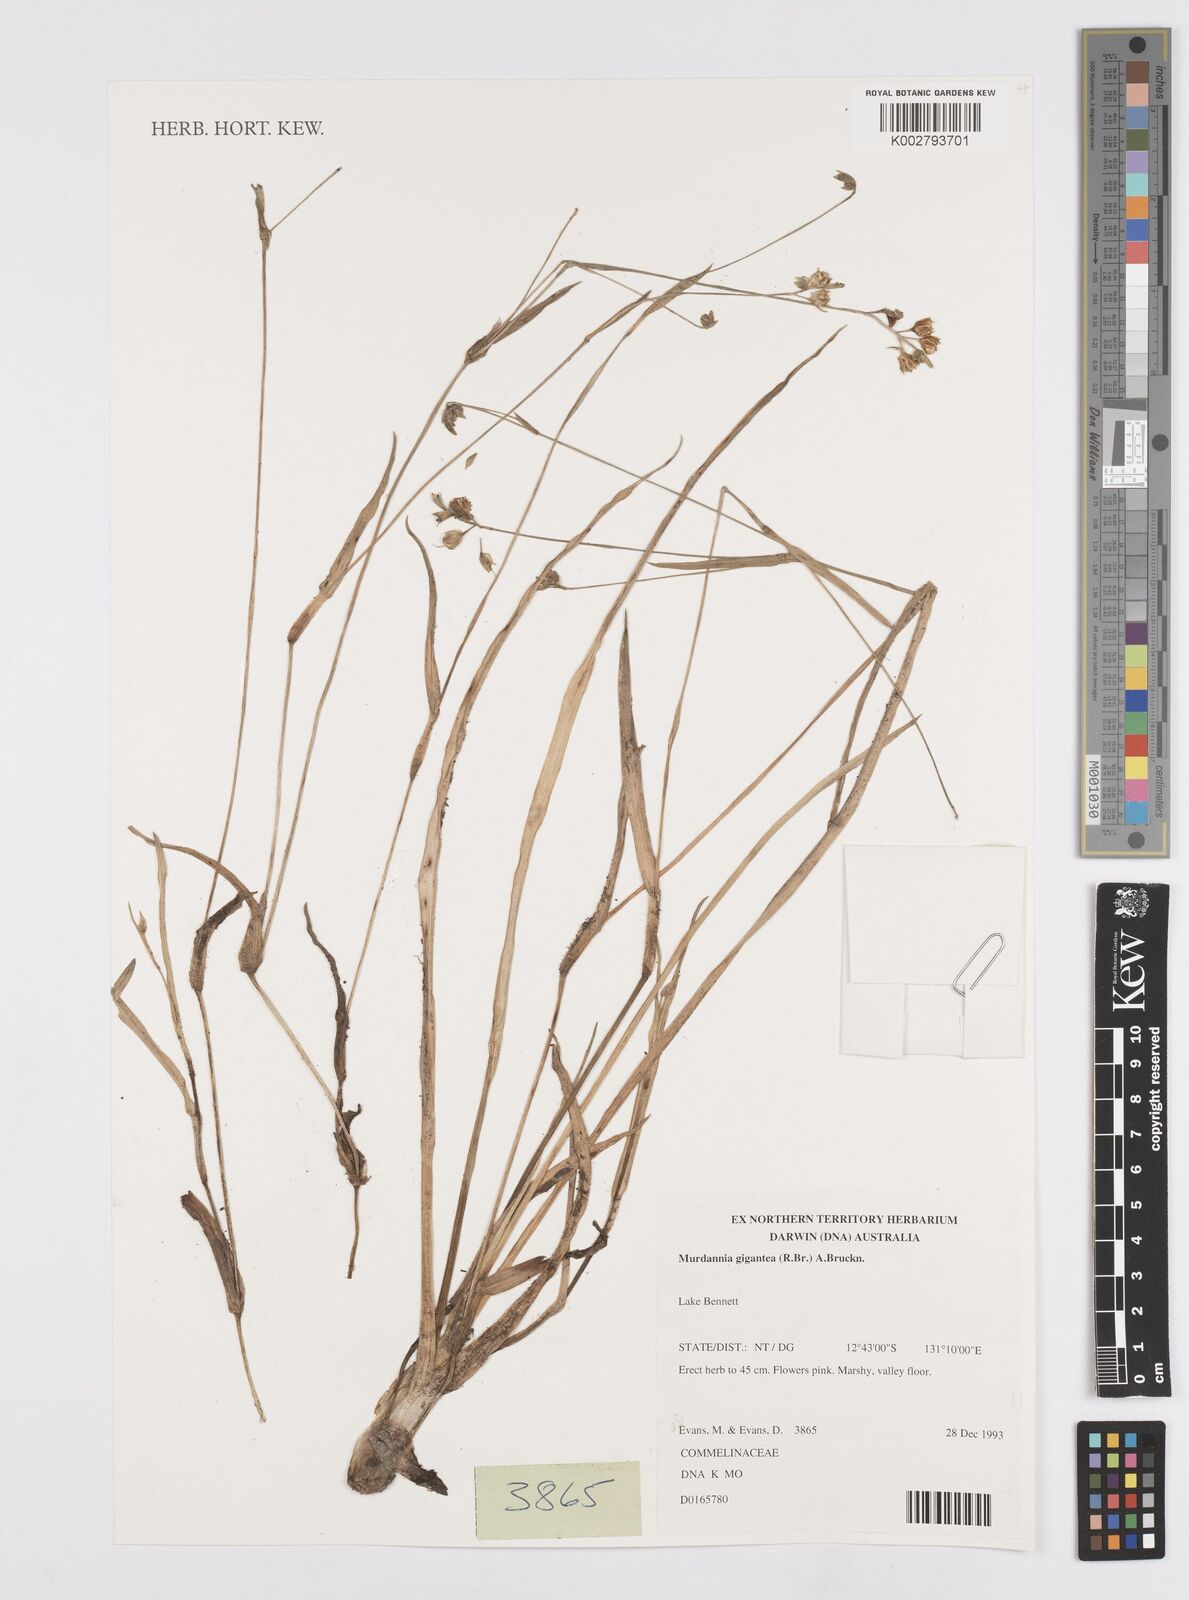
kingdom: Plantae
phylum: Tracheophyta
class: Liliopsida
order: Commelinales
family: Commelinaceae
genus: Murdannia
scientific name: Murdannia gigantea
